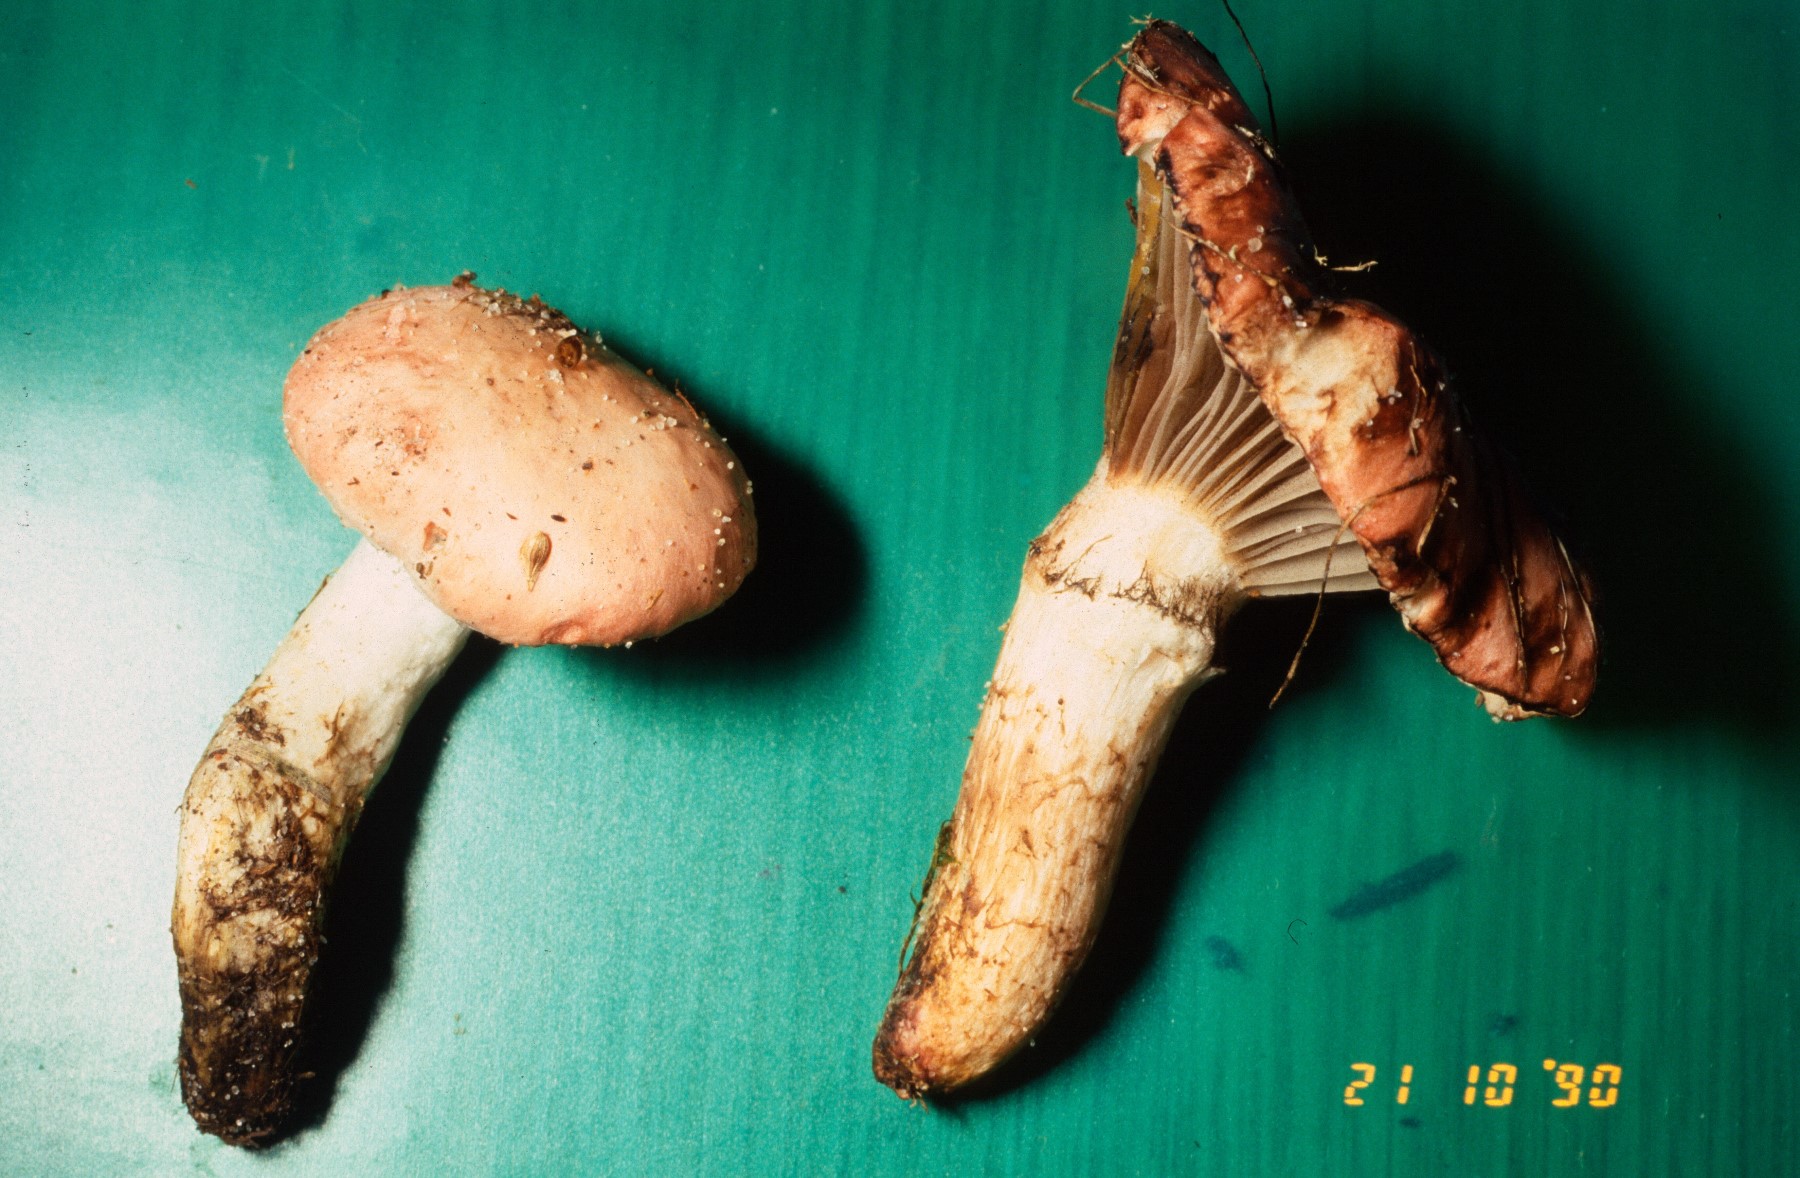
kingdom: Fungi
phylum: Basidiomycota
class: Agaricomycetes
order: Boletales
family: Gomphidiaceae
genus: Gomphidius
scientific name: Gomphidius roseus
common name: rosenrød slimslør
